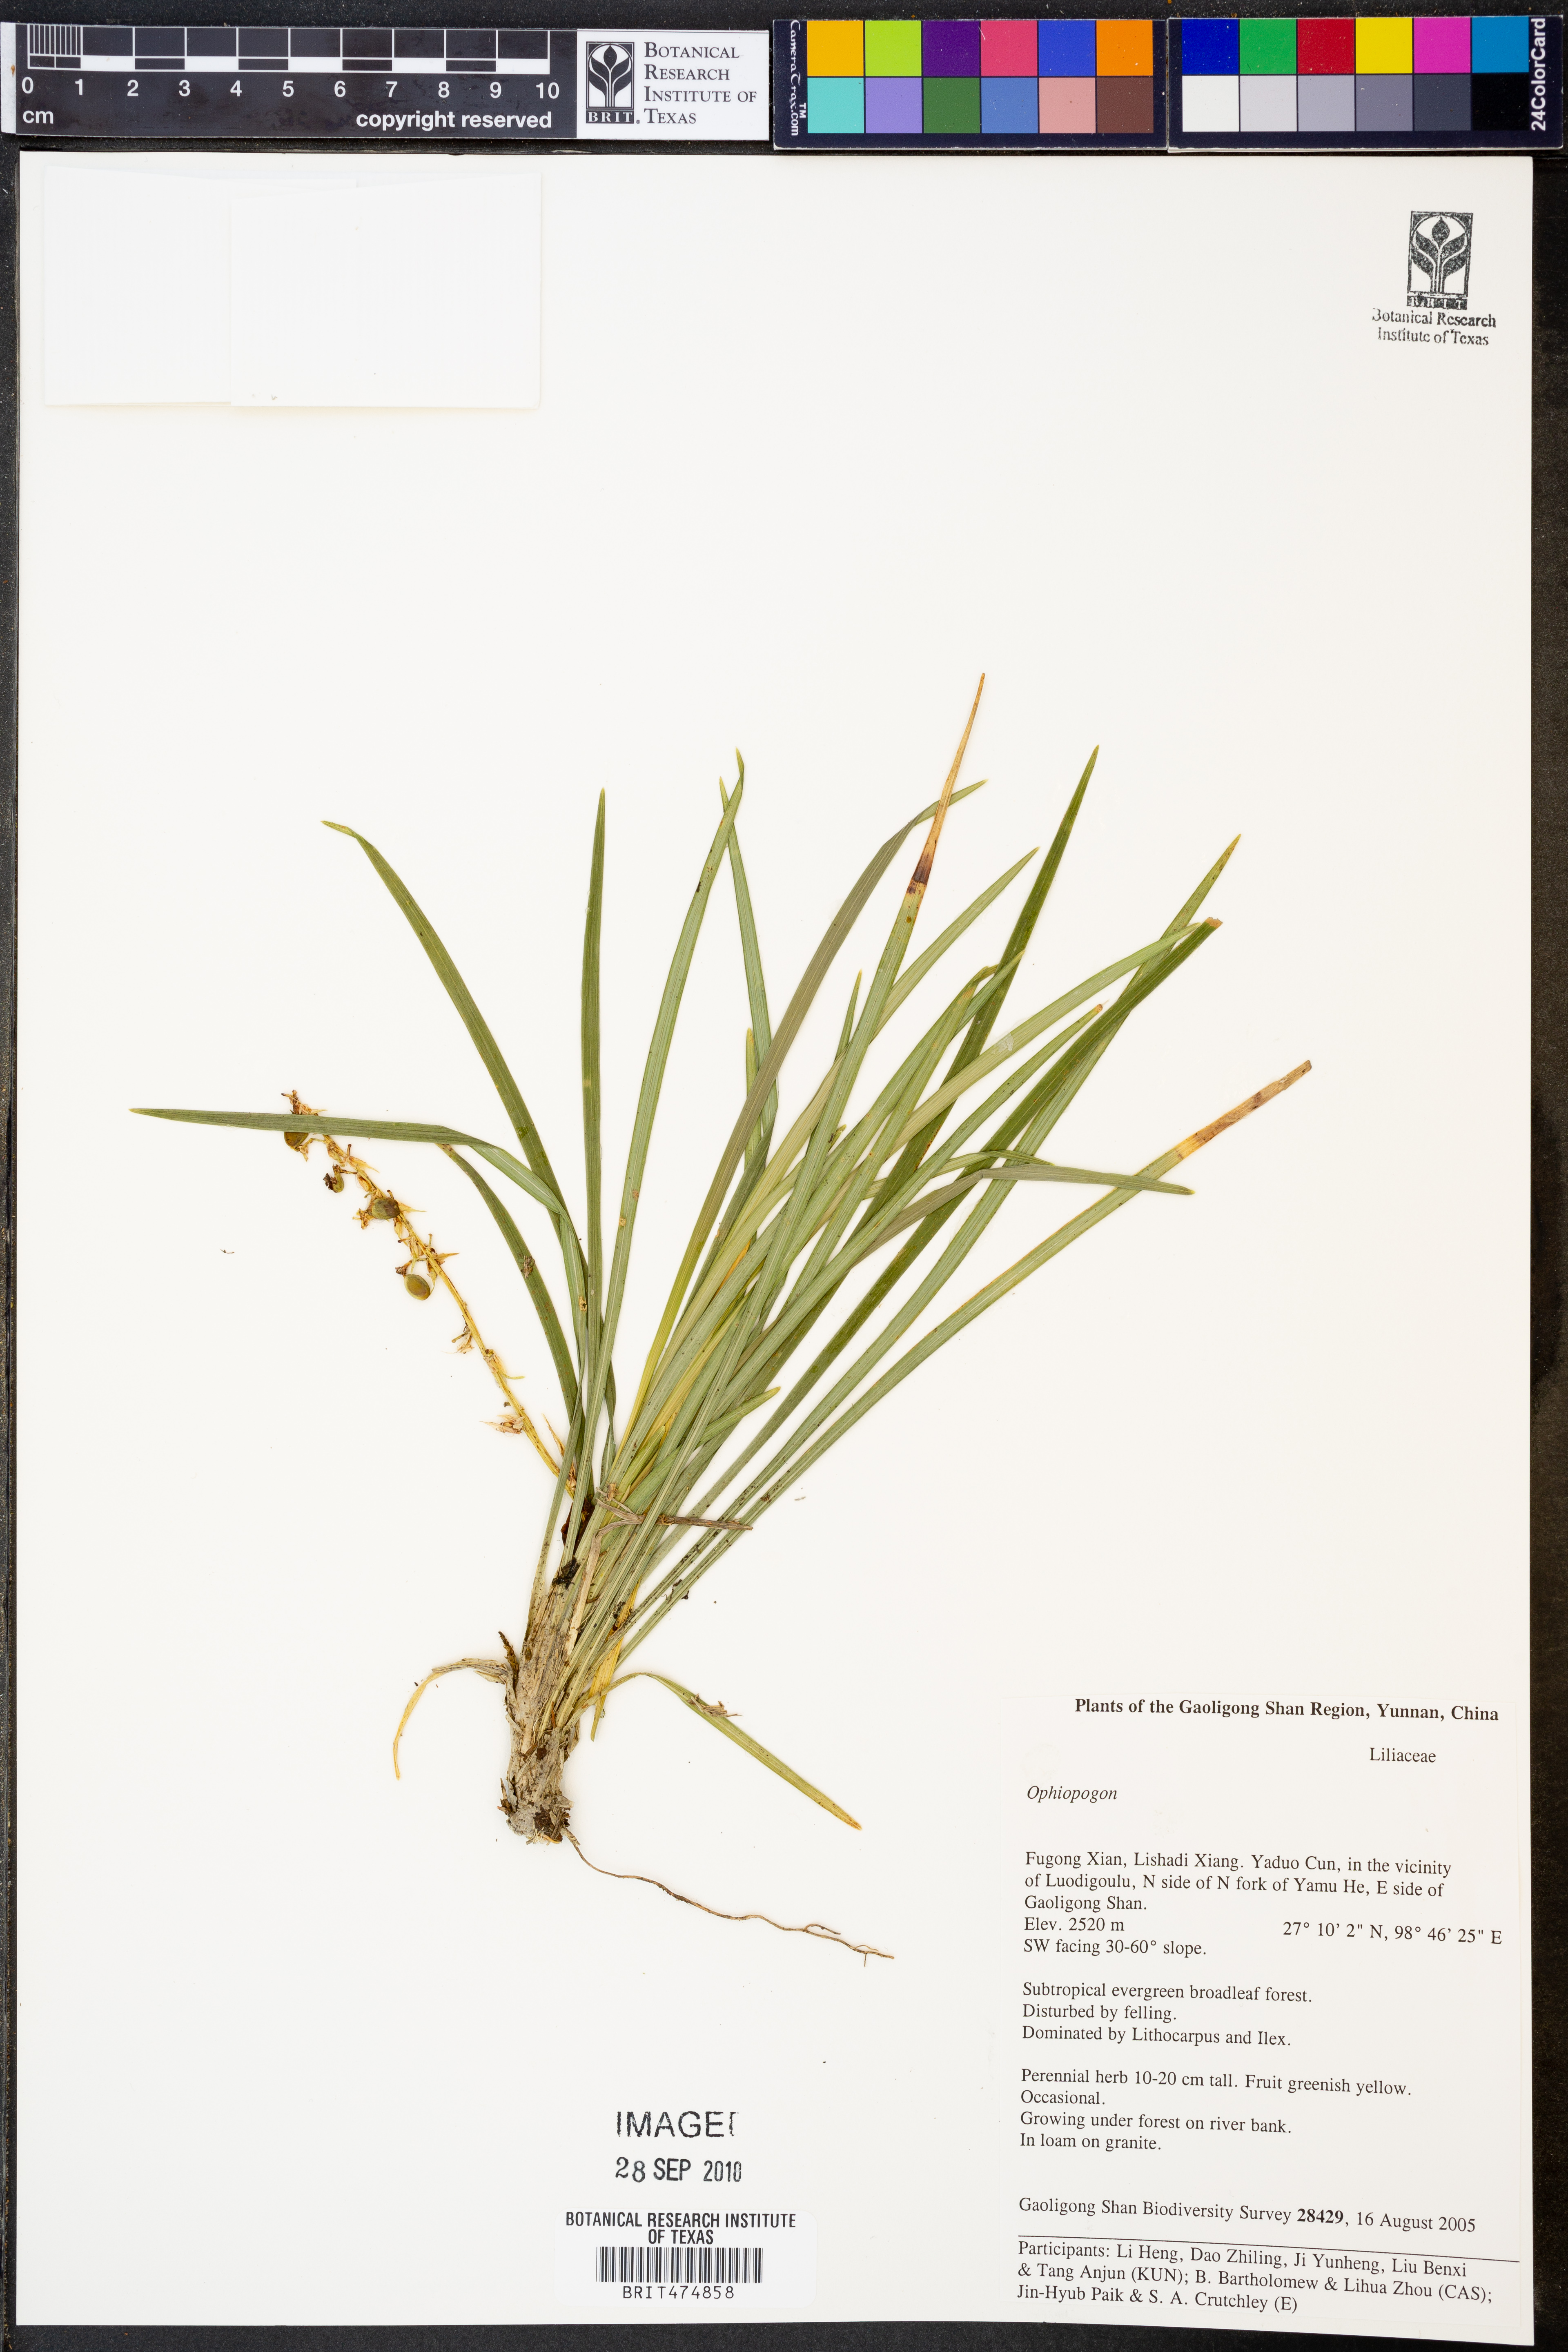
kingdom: Plantae
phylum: Tracheophyta
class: Liliopsida
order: Asparagales
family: Asparagaceae
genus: Ophiopogon
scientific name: Ophiopogon
